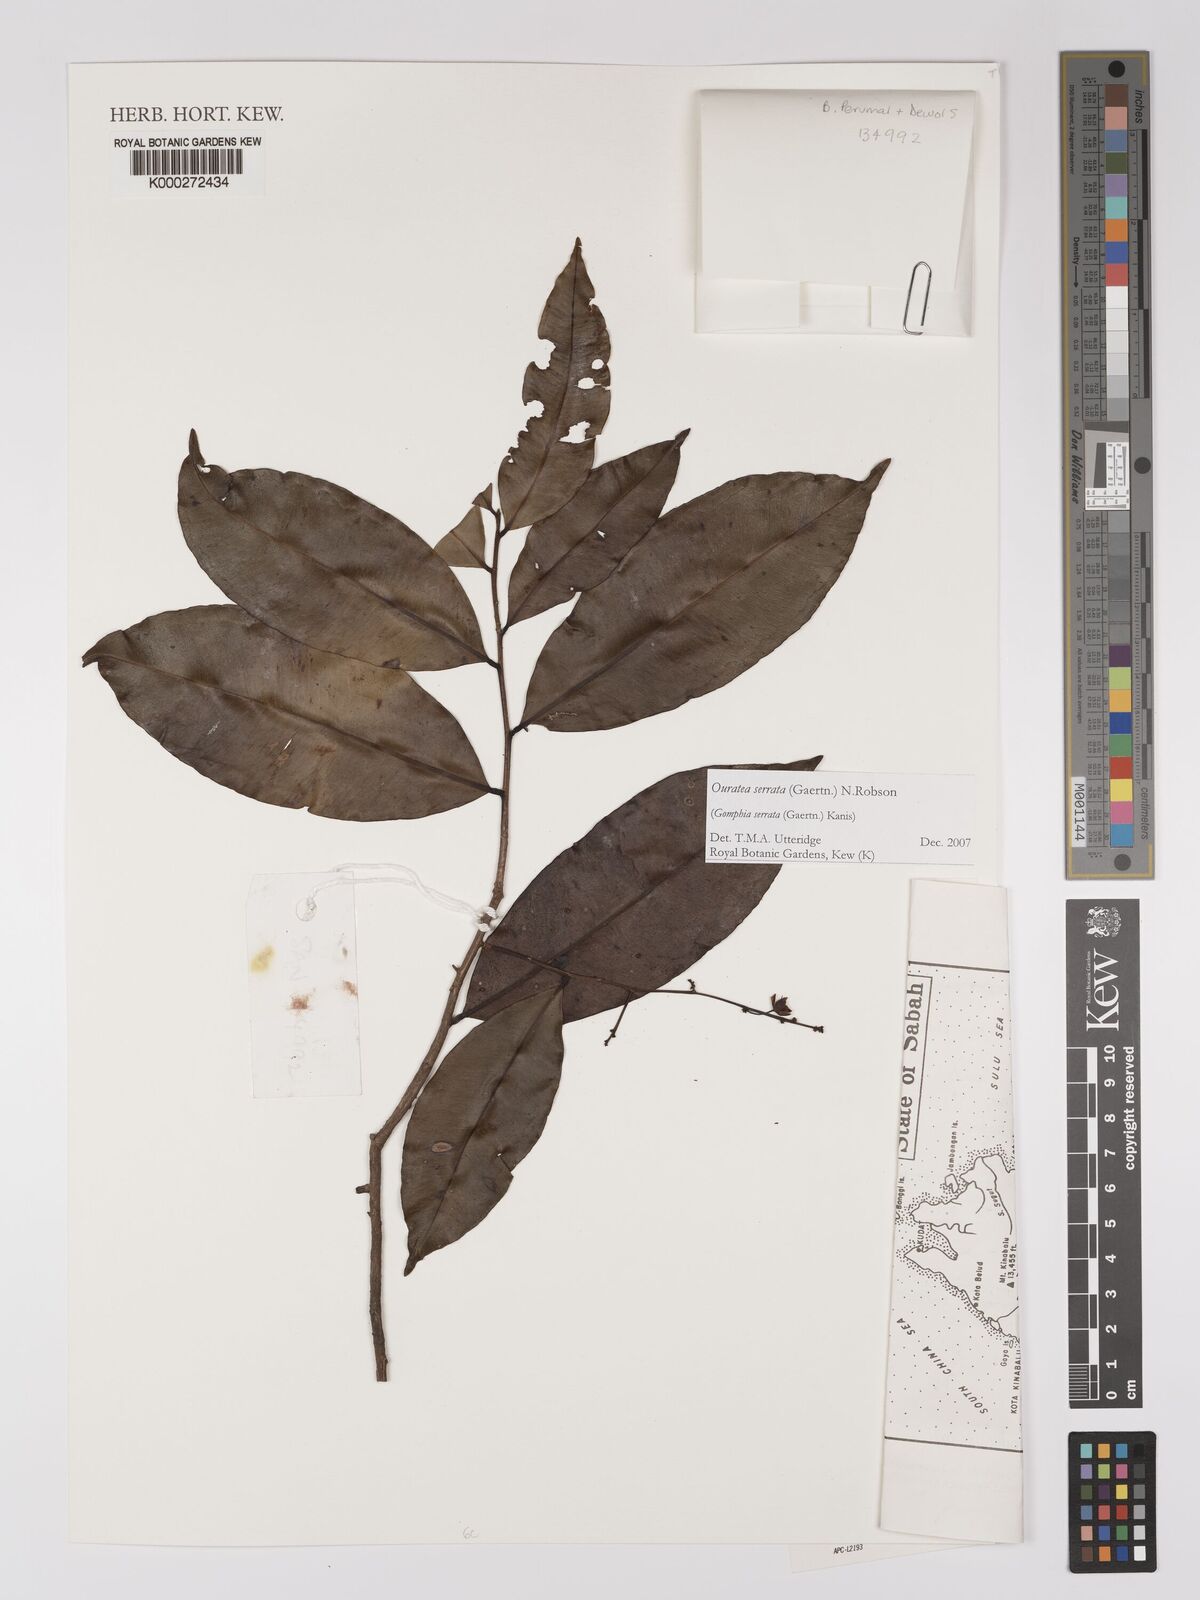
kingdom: Plantae
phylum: Tracheophyta
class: Magnoliopsida
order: Malpighiales
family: Ochnaceae
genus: Gomphia
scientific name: Gomphia serrata
